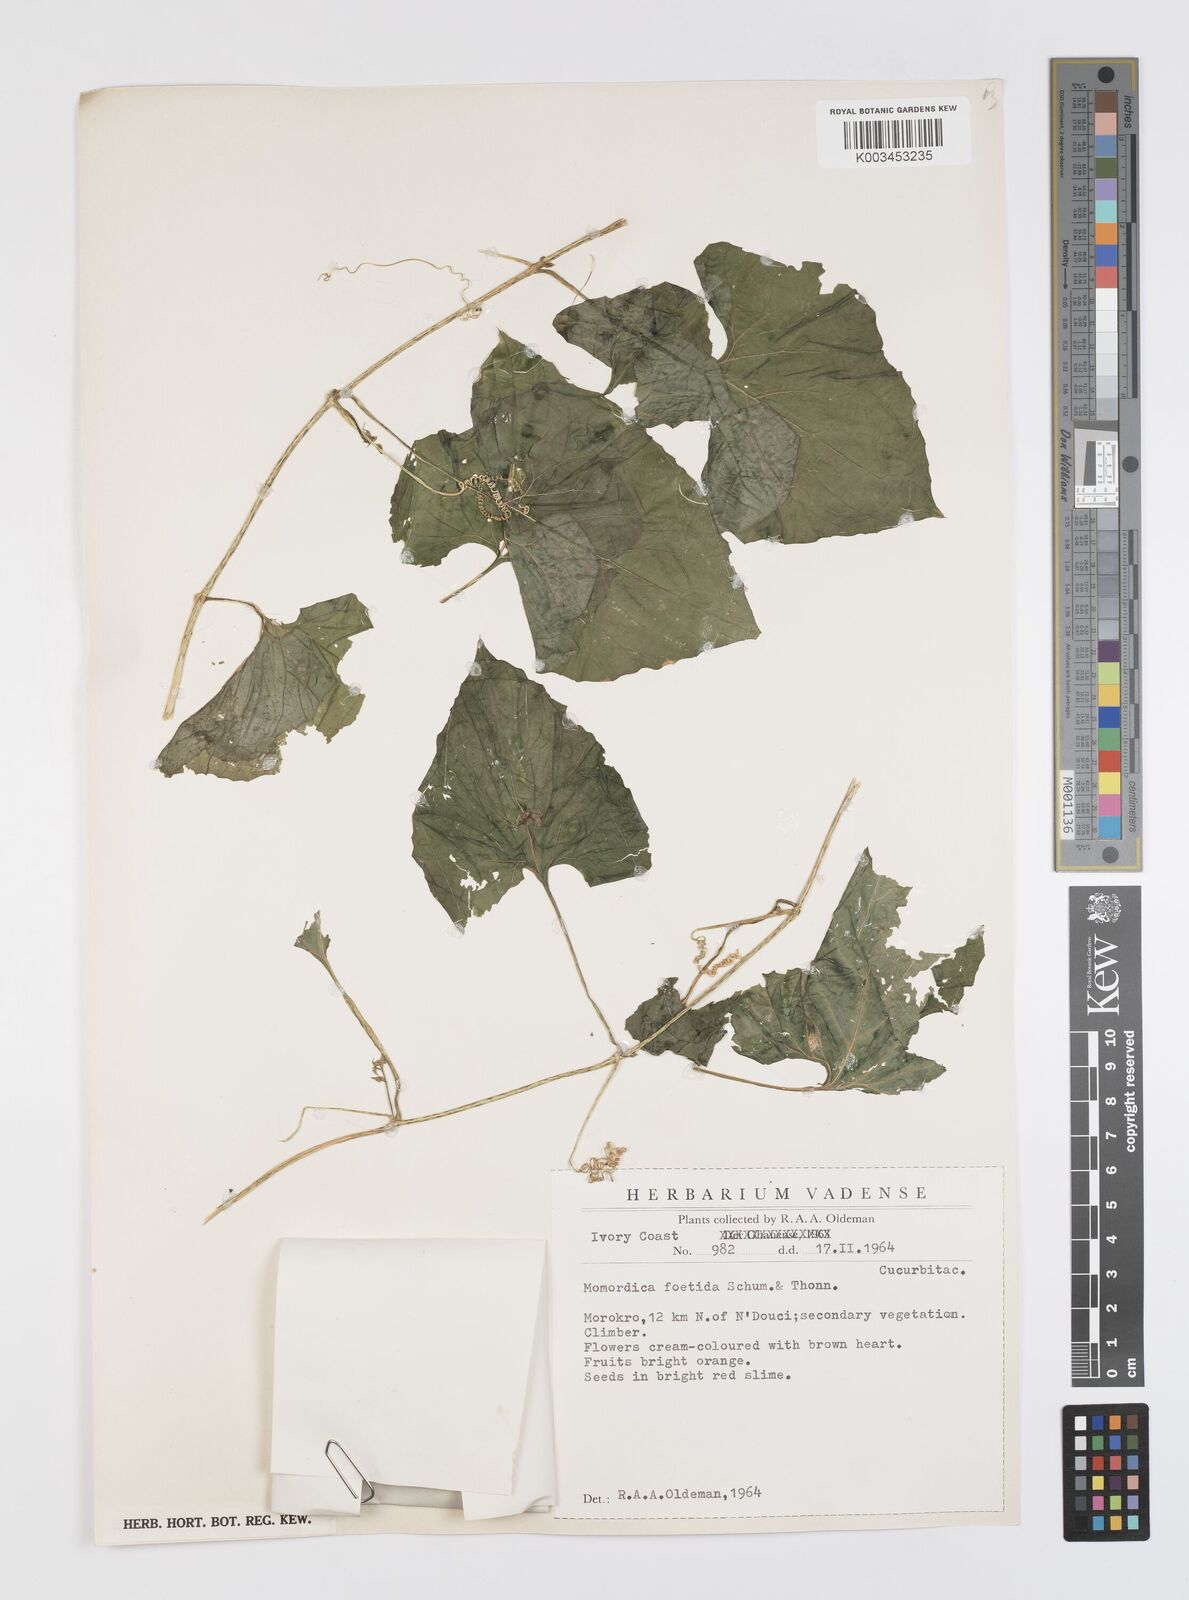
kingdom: Plantae
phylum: Tracheophyta
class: Magnoliopsida
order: Cucurbitales
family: Cucurbitaceae
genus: Momordica
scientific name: Momordica foetida
